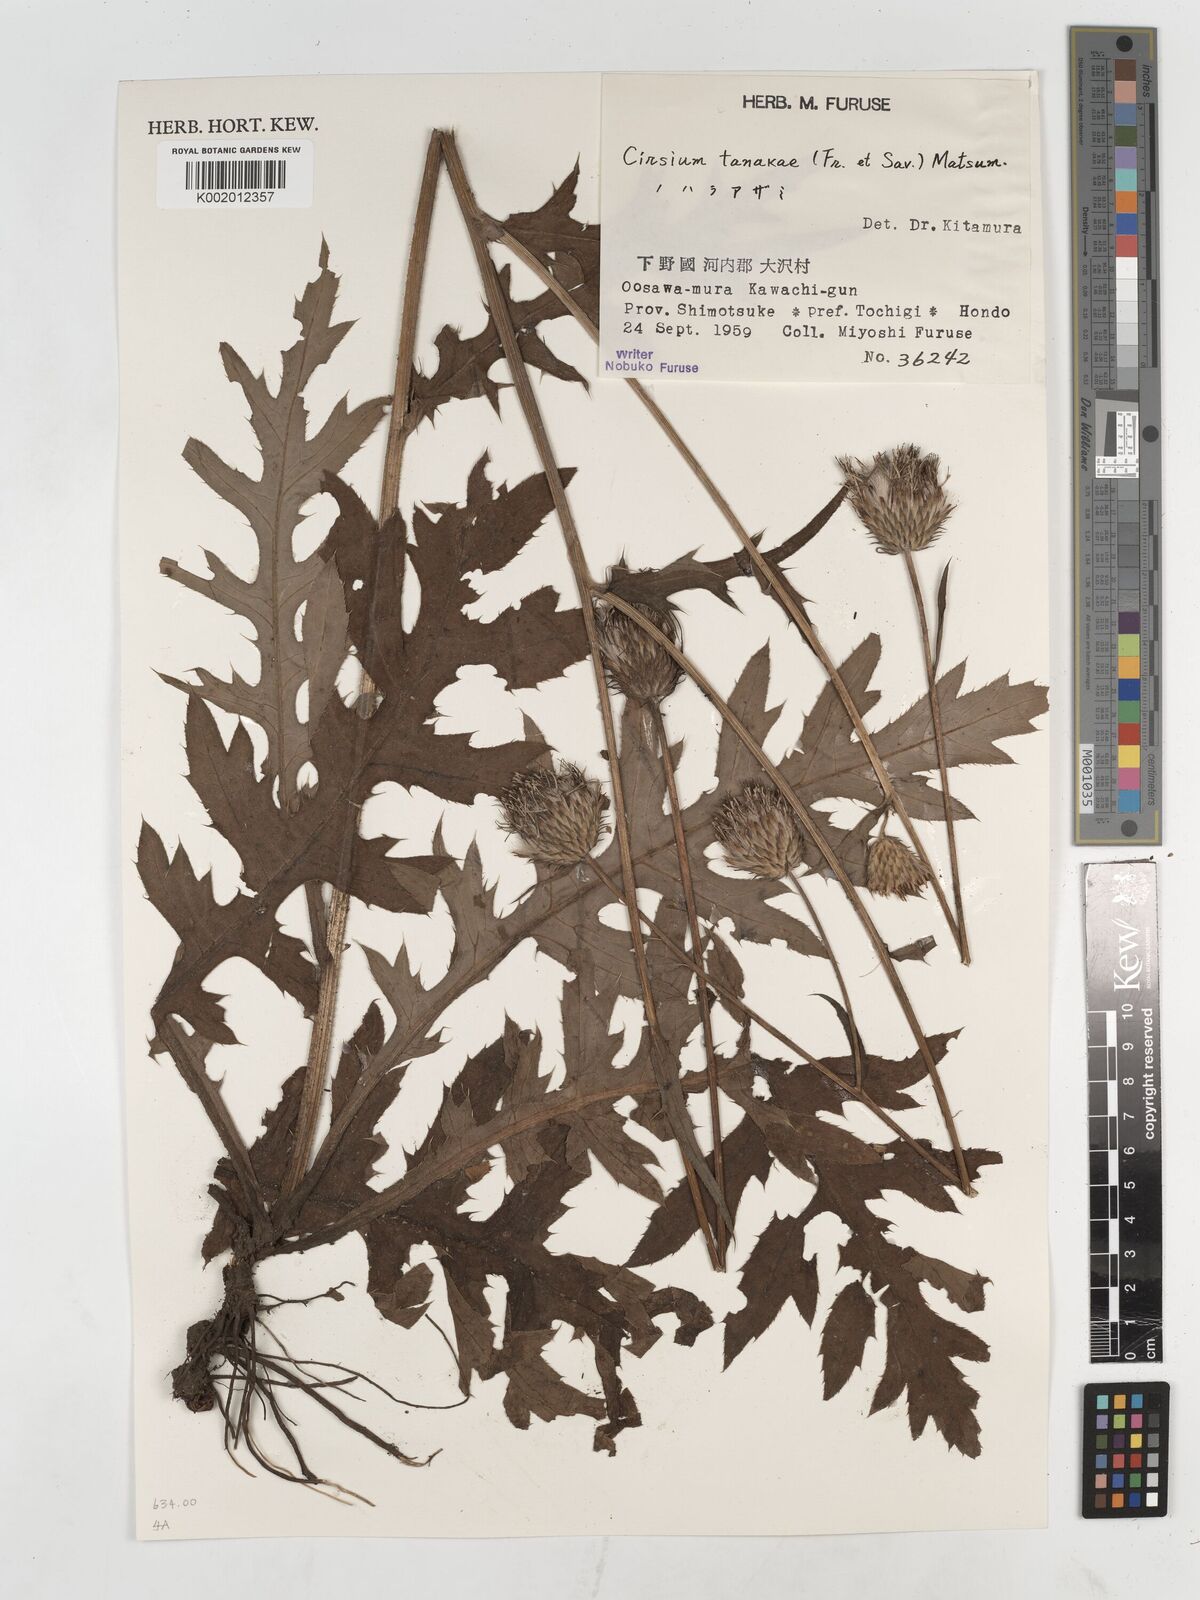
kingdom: Plantae
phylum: Tracheophyta
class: Magnoliopsida
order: Asterales
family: Asteraceae
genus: Cirsium
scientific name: Cirsium nipponicum
